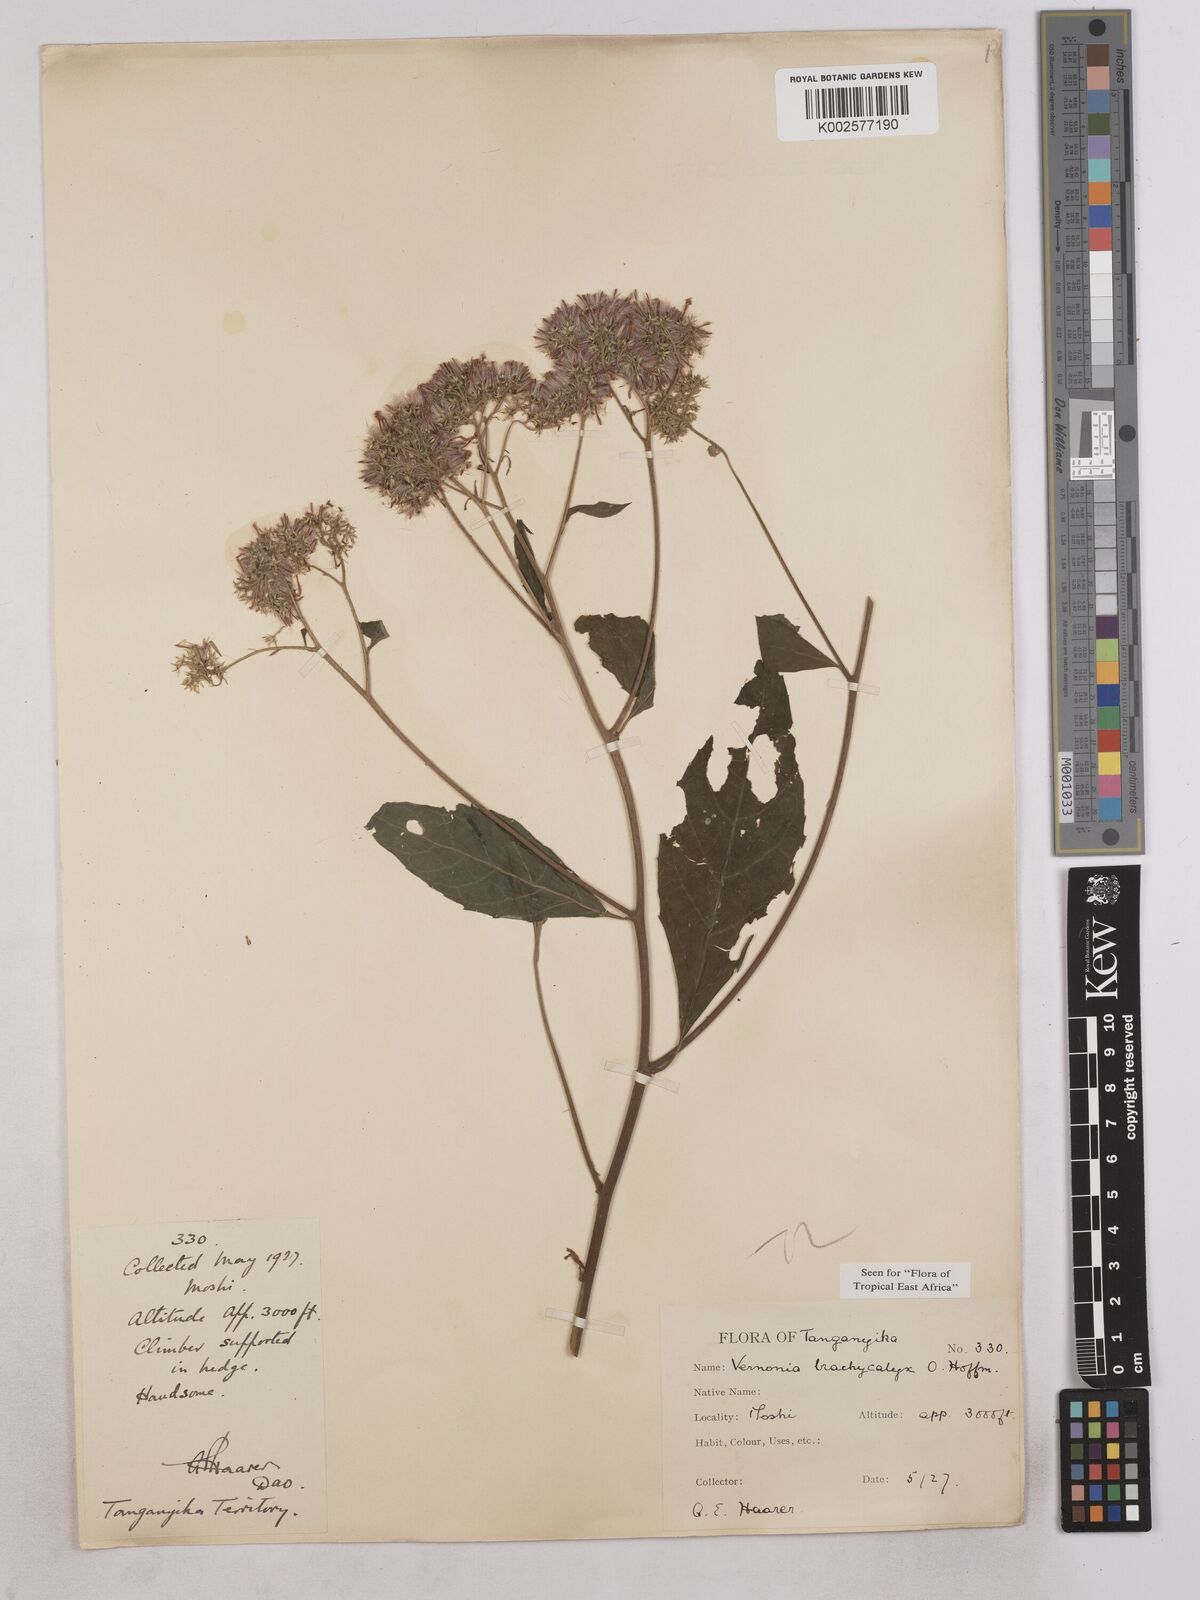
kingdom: Plantae
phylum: Tracheophyta
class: Magnoliopsida
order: Asterales
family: Asteraceae
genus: Hoffmannanthus
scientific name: Hoffmannanthus abbotianus
